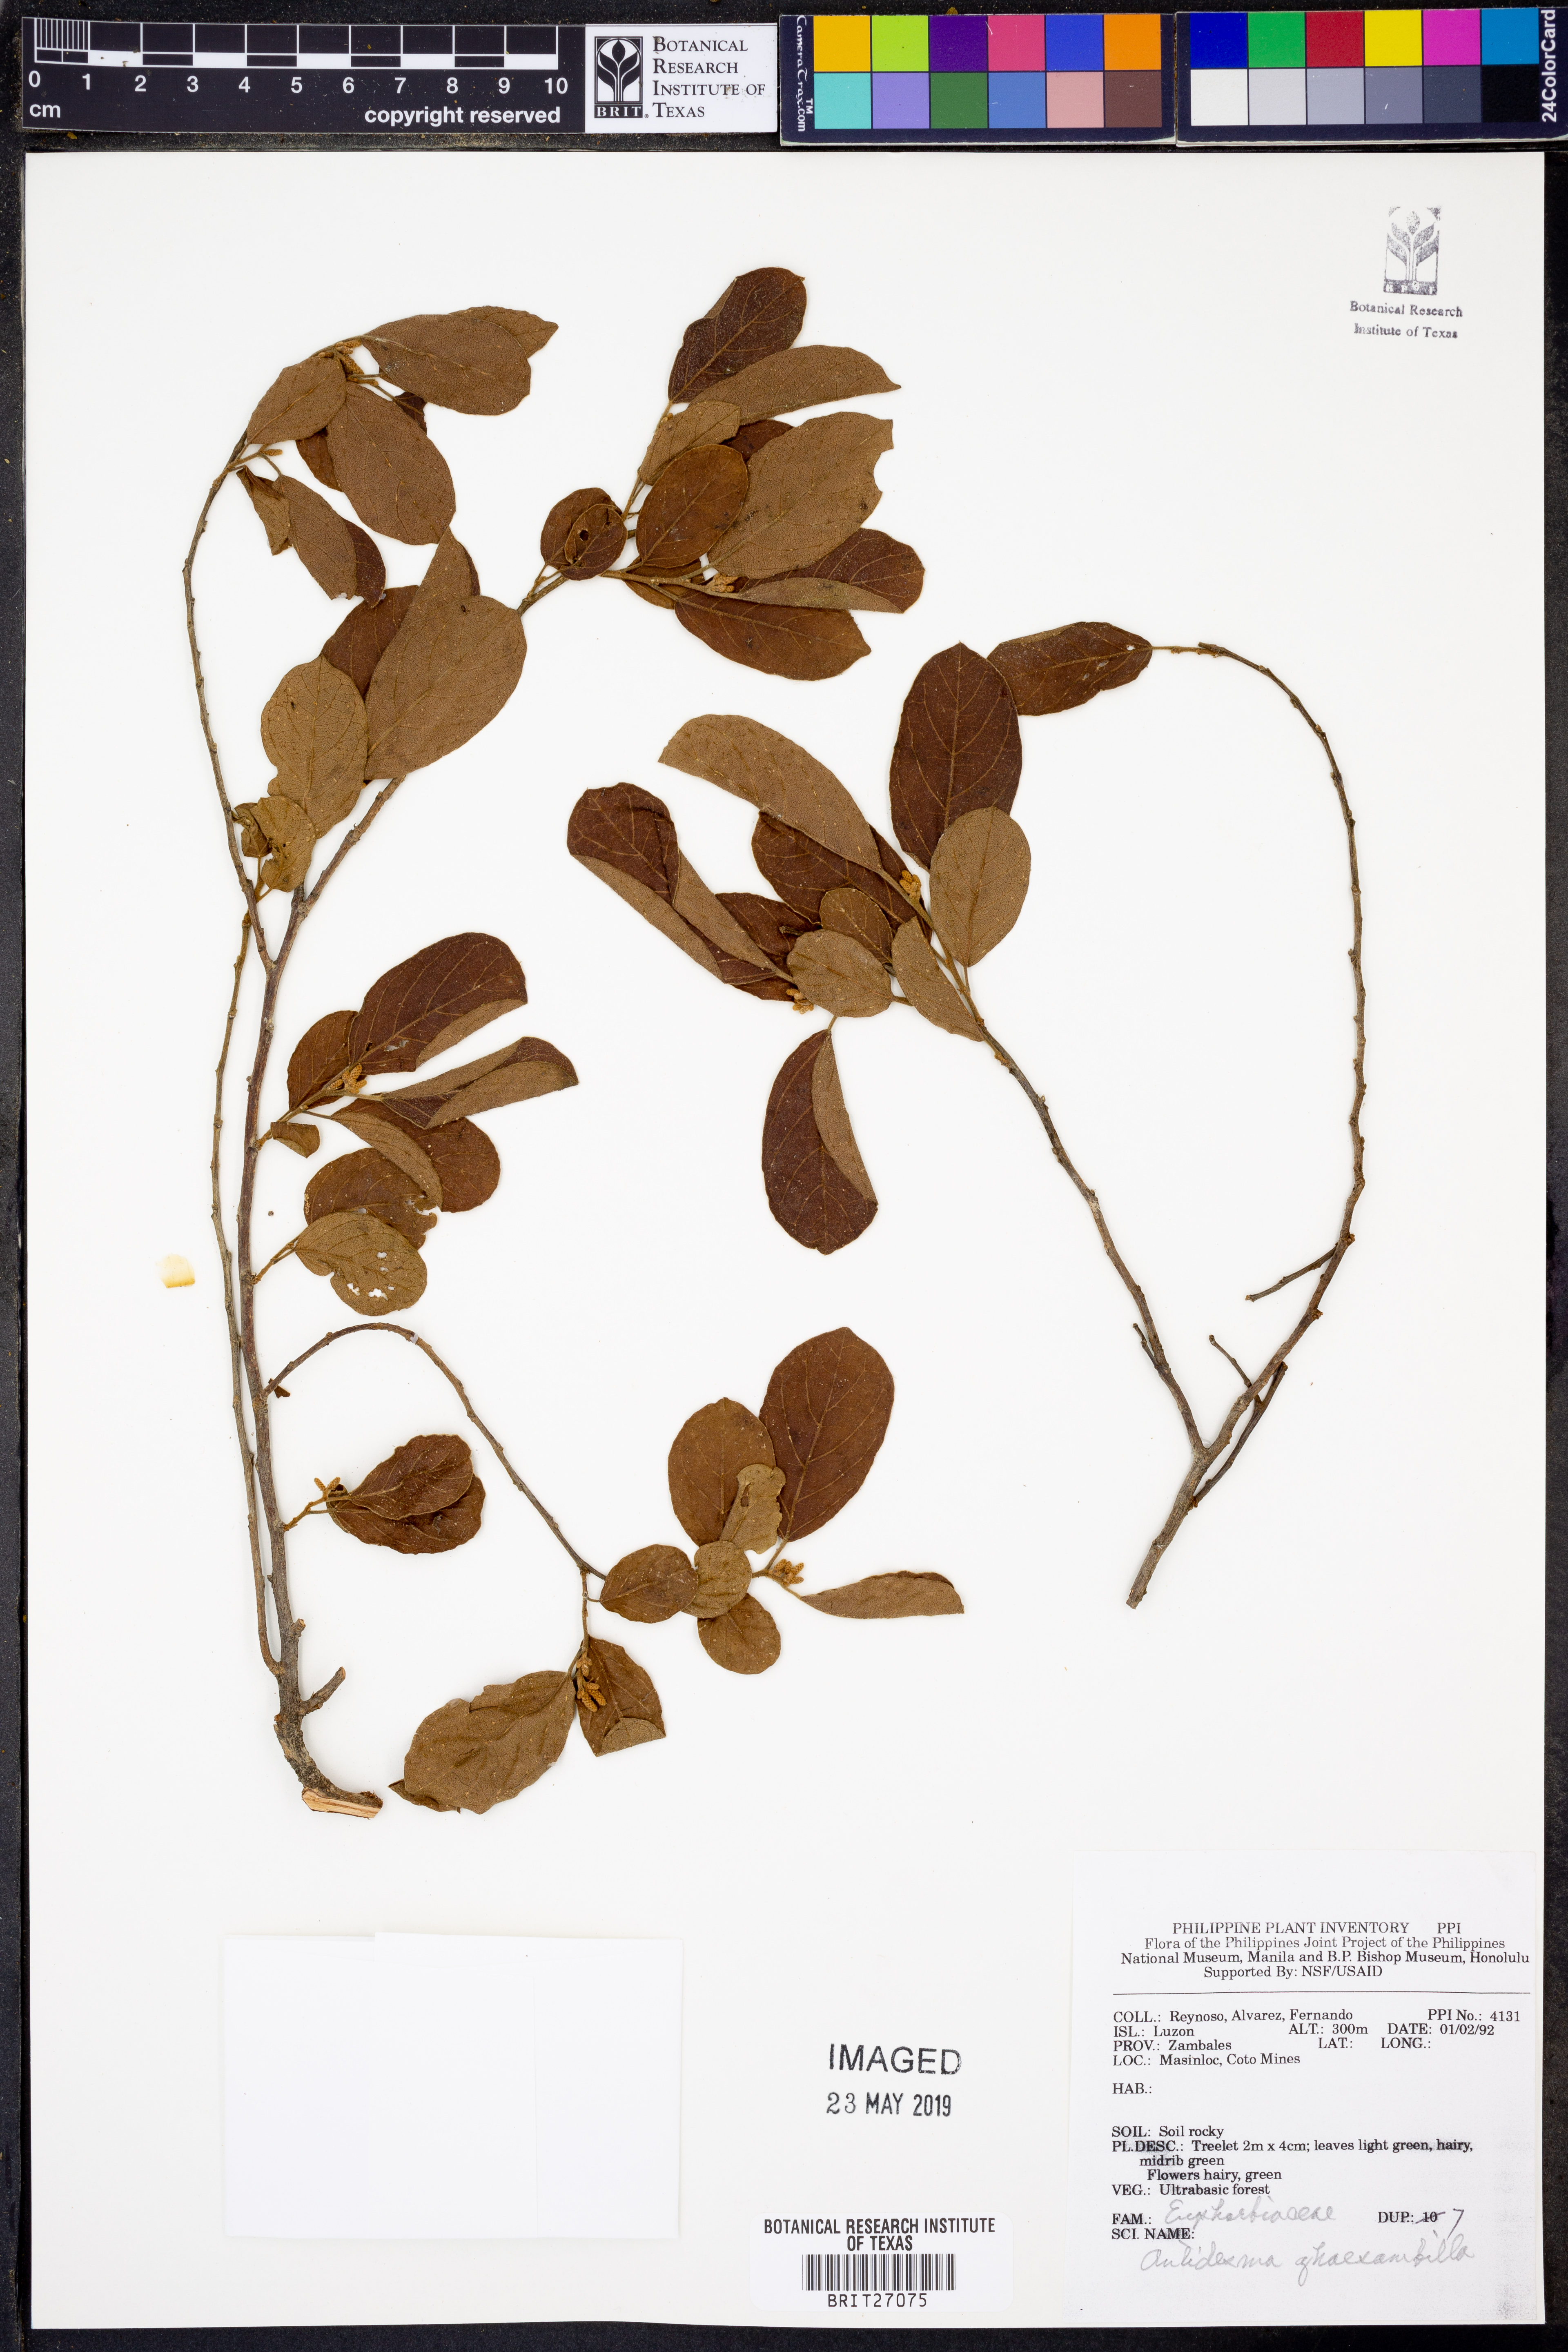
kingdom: Plantae
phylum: Tracheophyta
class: Magnoliopsida
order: Malpighiales
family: Phyllanthaceae
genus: Antidesma
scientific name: Antidesma ghaesembilla
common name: Black currant-tree
